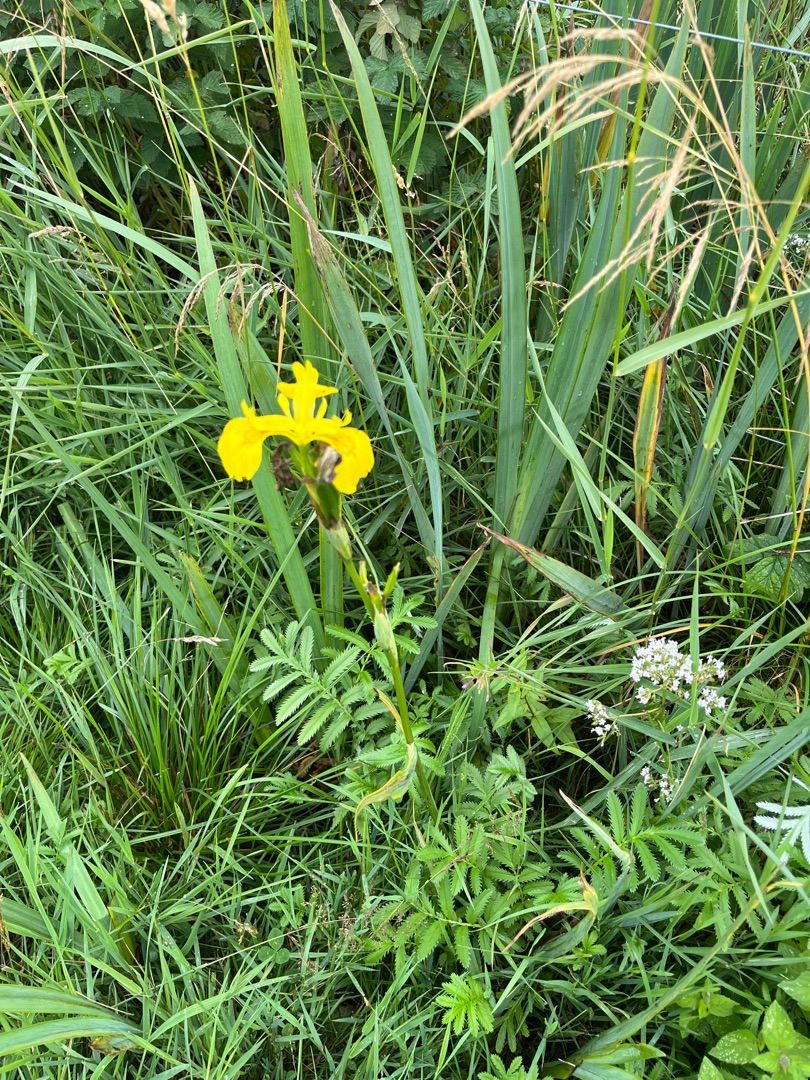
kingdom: Plantae
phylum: Tracheophyta
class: Liliopsida
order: Asparagales
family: Iridaceae
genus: Iris
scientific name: Iris pseudacorus
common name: Gul iris
